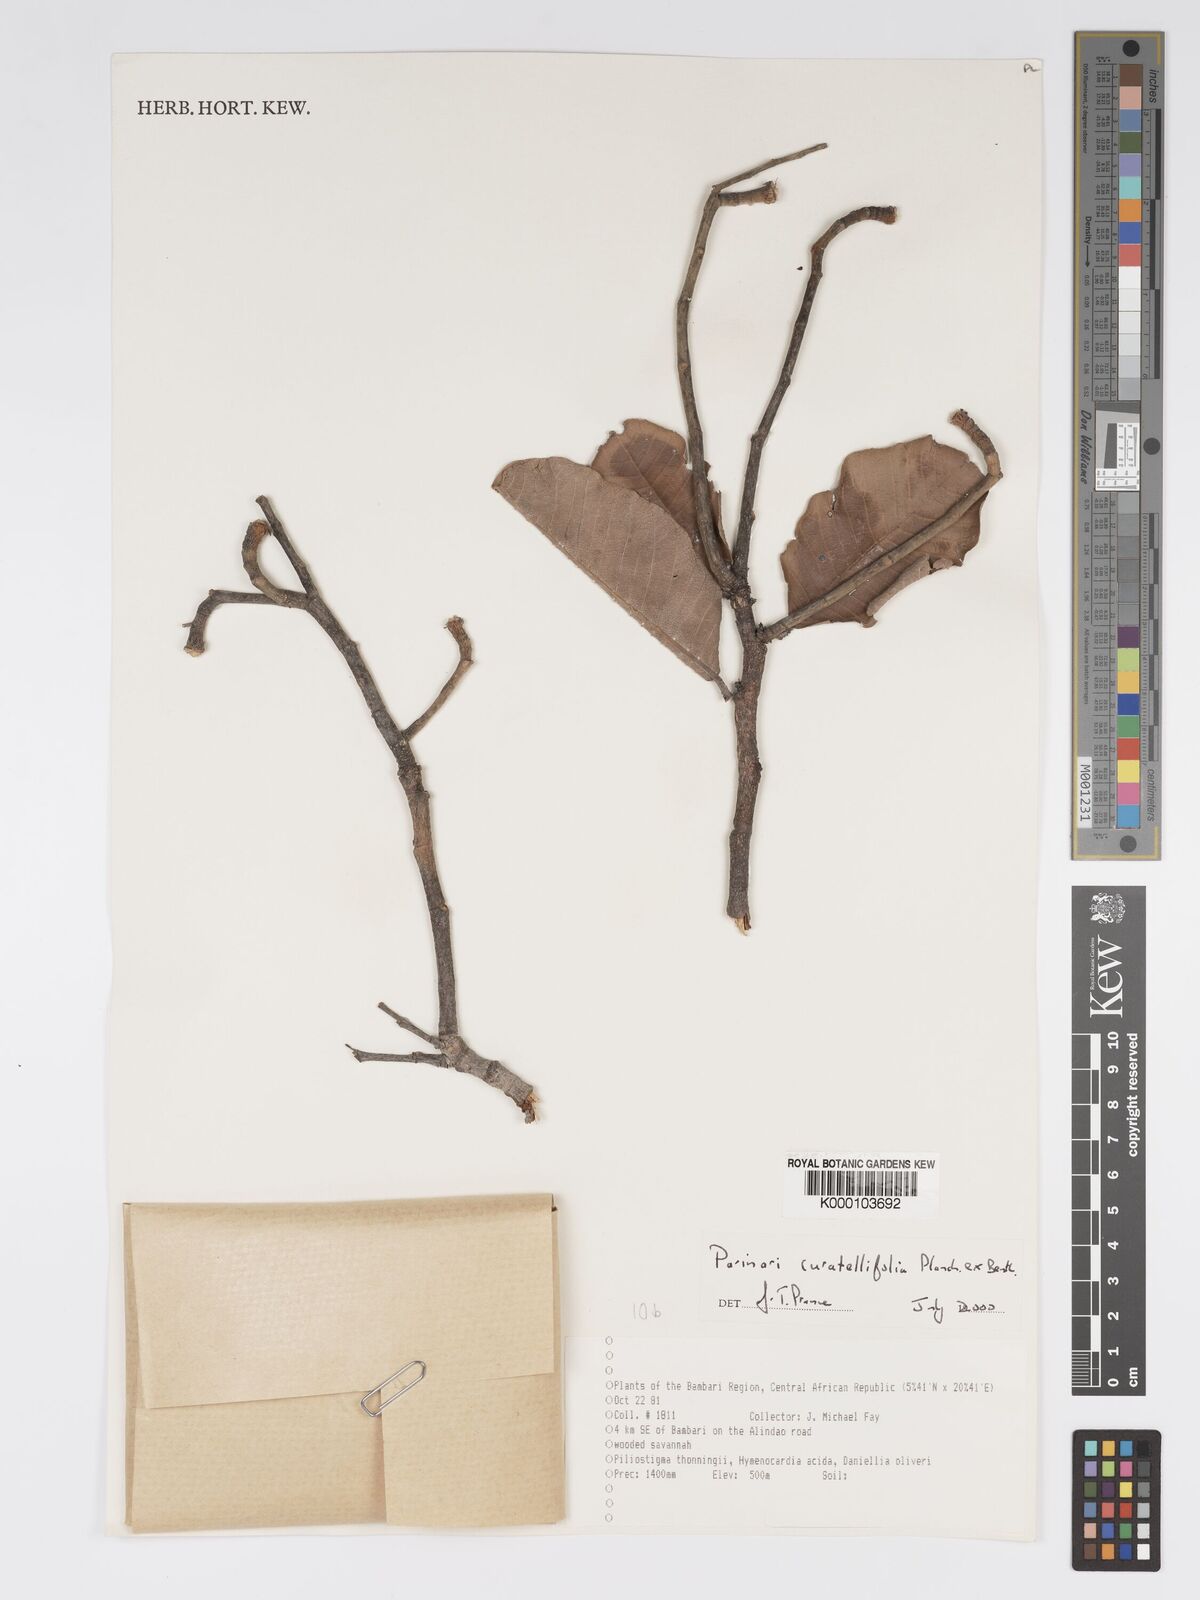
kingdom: Plantae
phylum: Tracheophyta
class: Magnoliopsida
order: Malpighiales
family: Chrysobalanaceae
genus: Parinari
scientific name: Parinari curatellifolia
